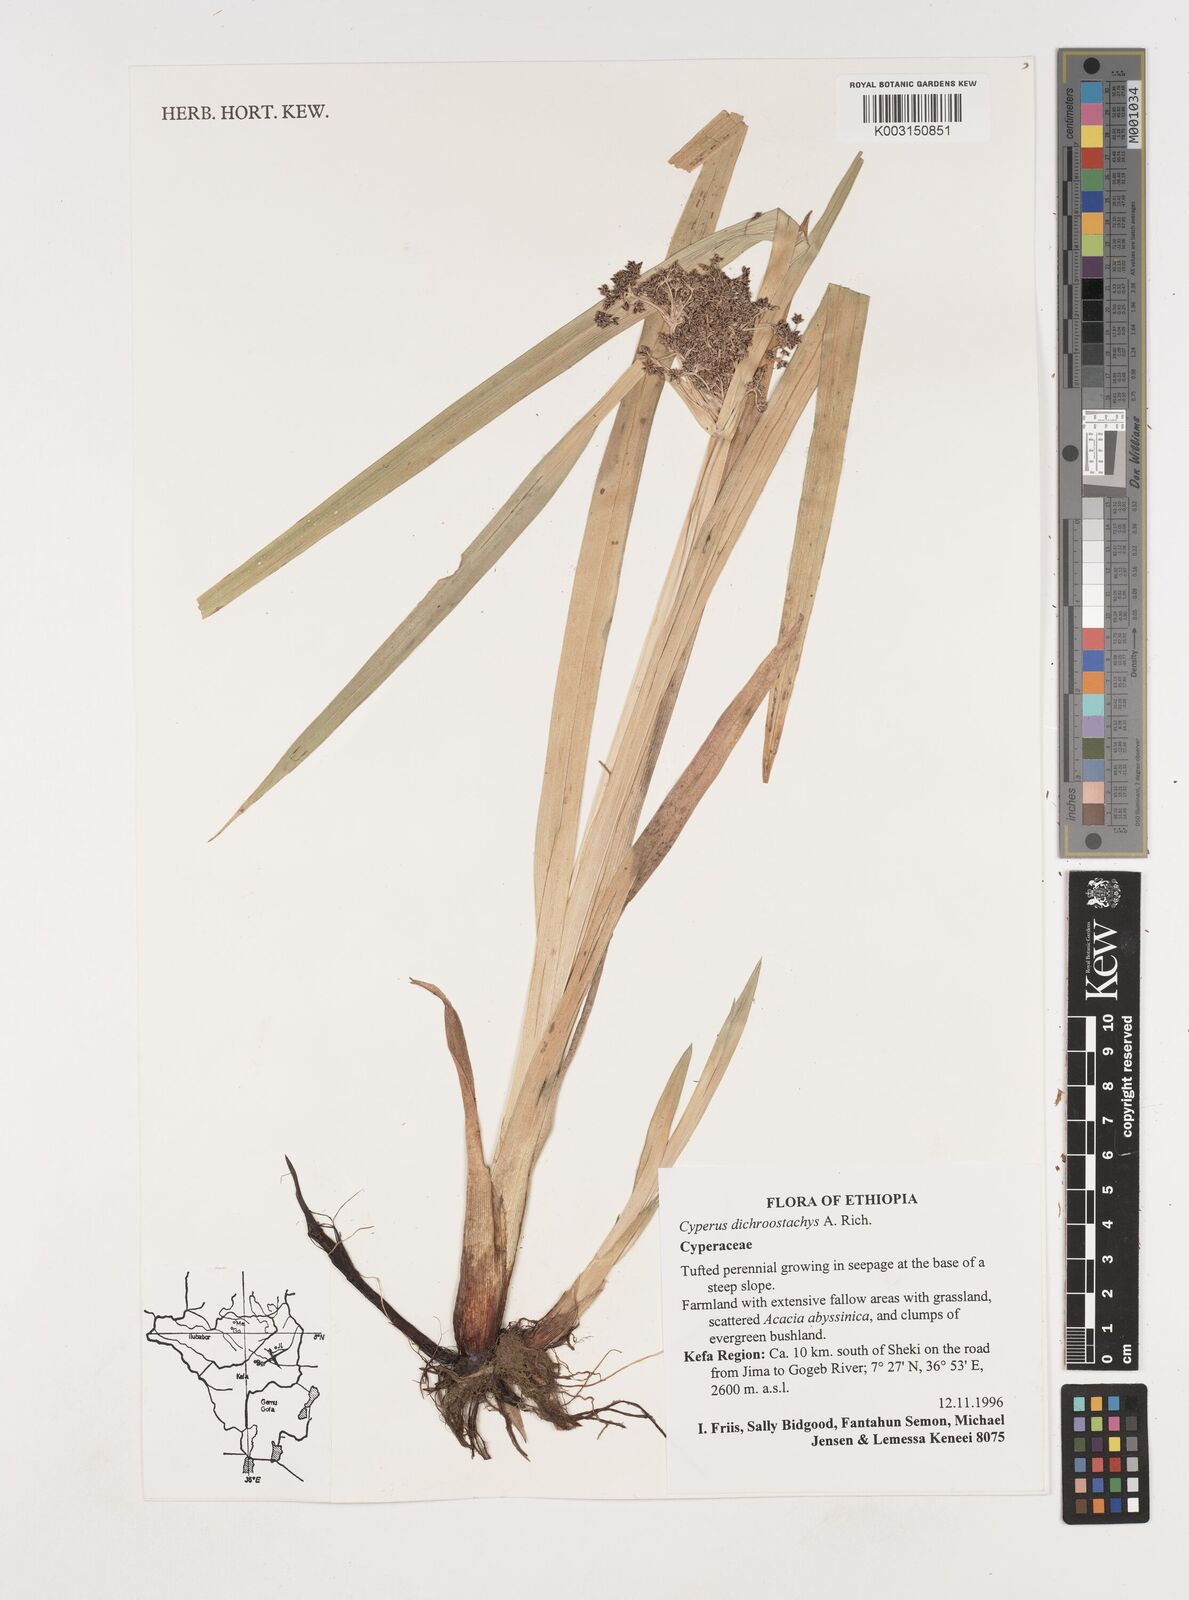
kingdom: Plantae
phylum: Tracheophyta
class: Liliopsida
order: Poales
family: Cyperaceae
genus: Cyperus
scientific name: Cyperus dichrostachyus
